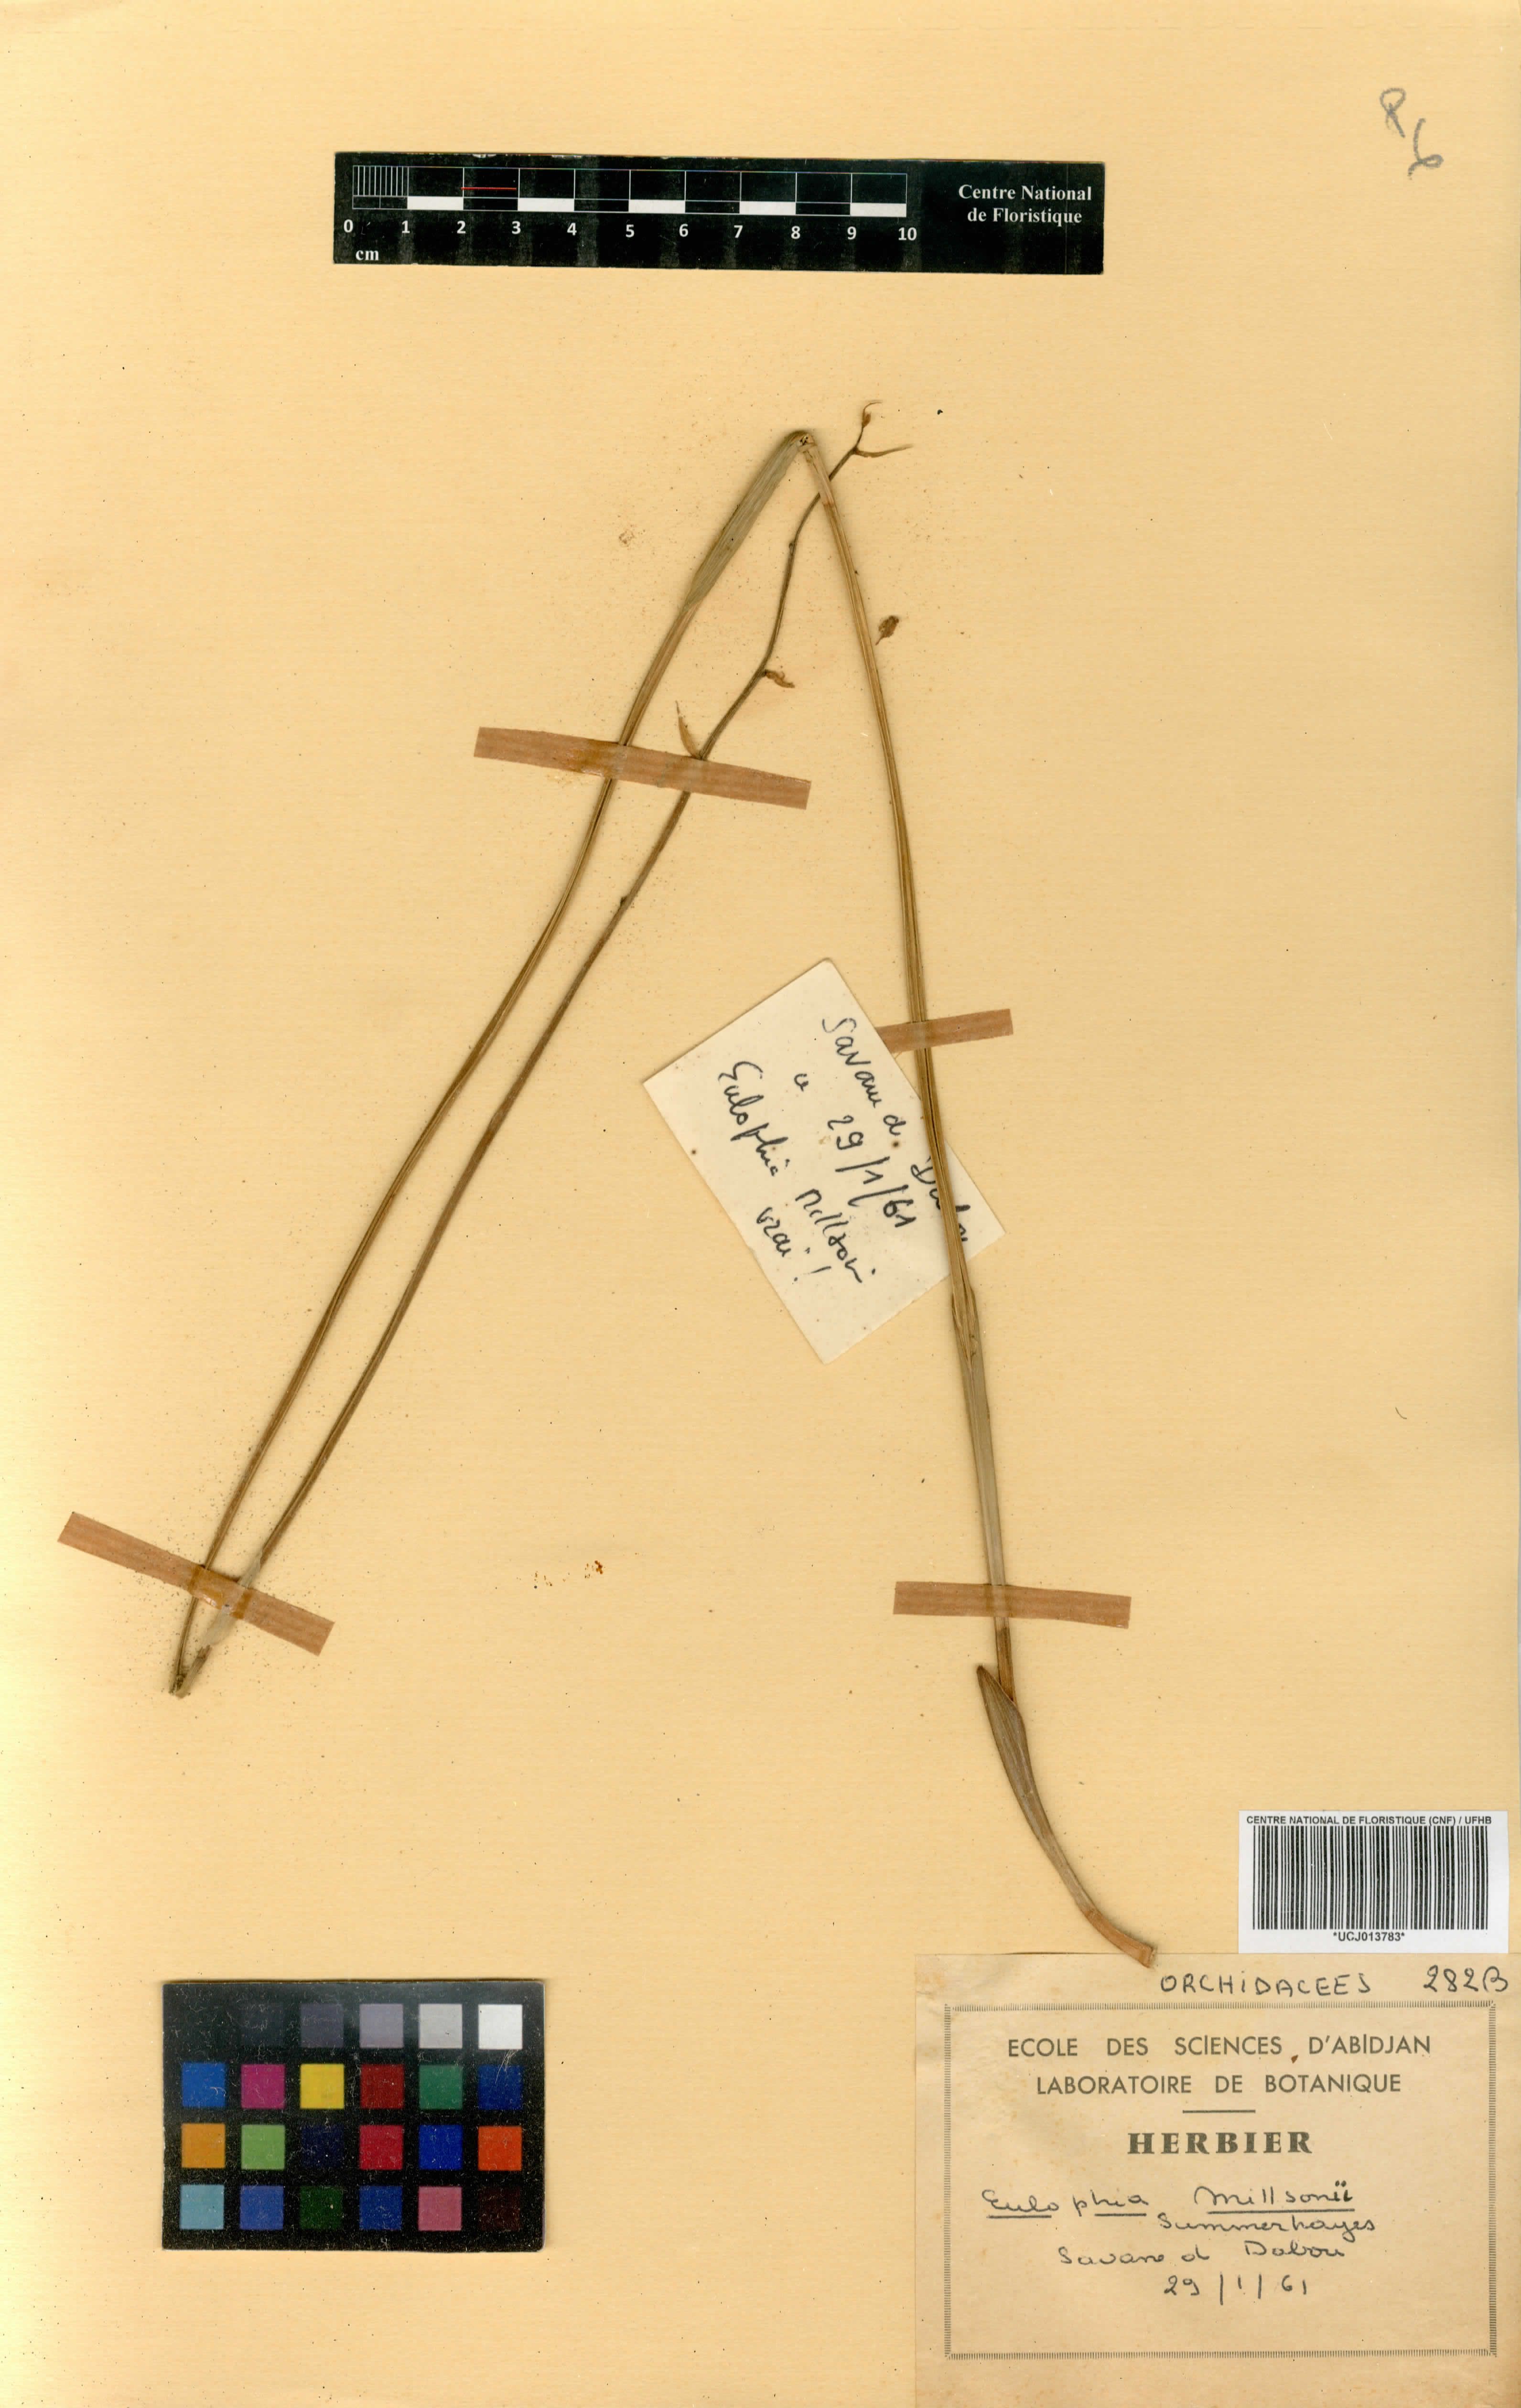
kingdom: Plantae
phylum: Tracheophyta
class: Liliopsida
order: Asparagales
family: Orchidaceae
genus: Eulophia
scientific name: Eulophia flavopurpurea
